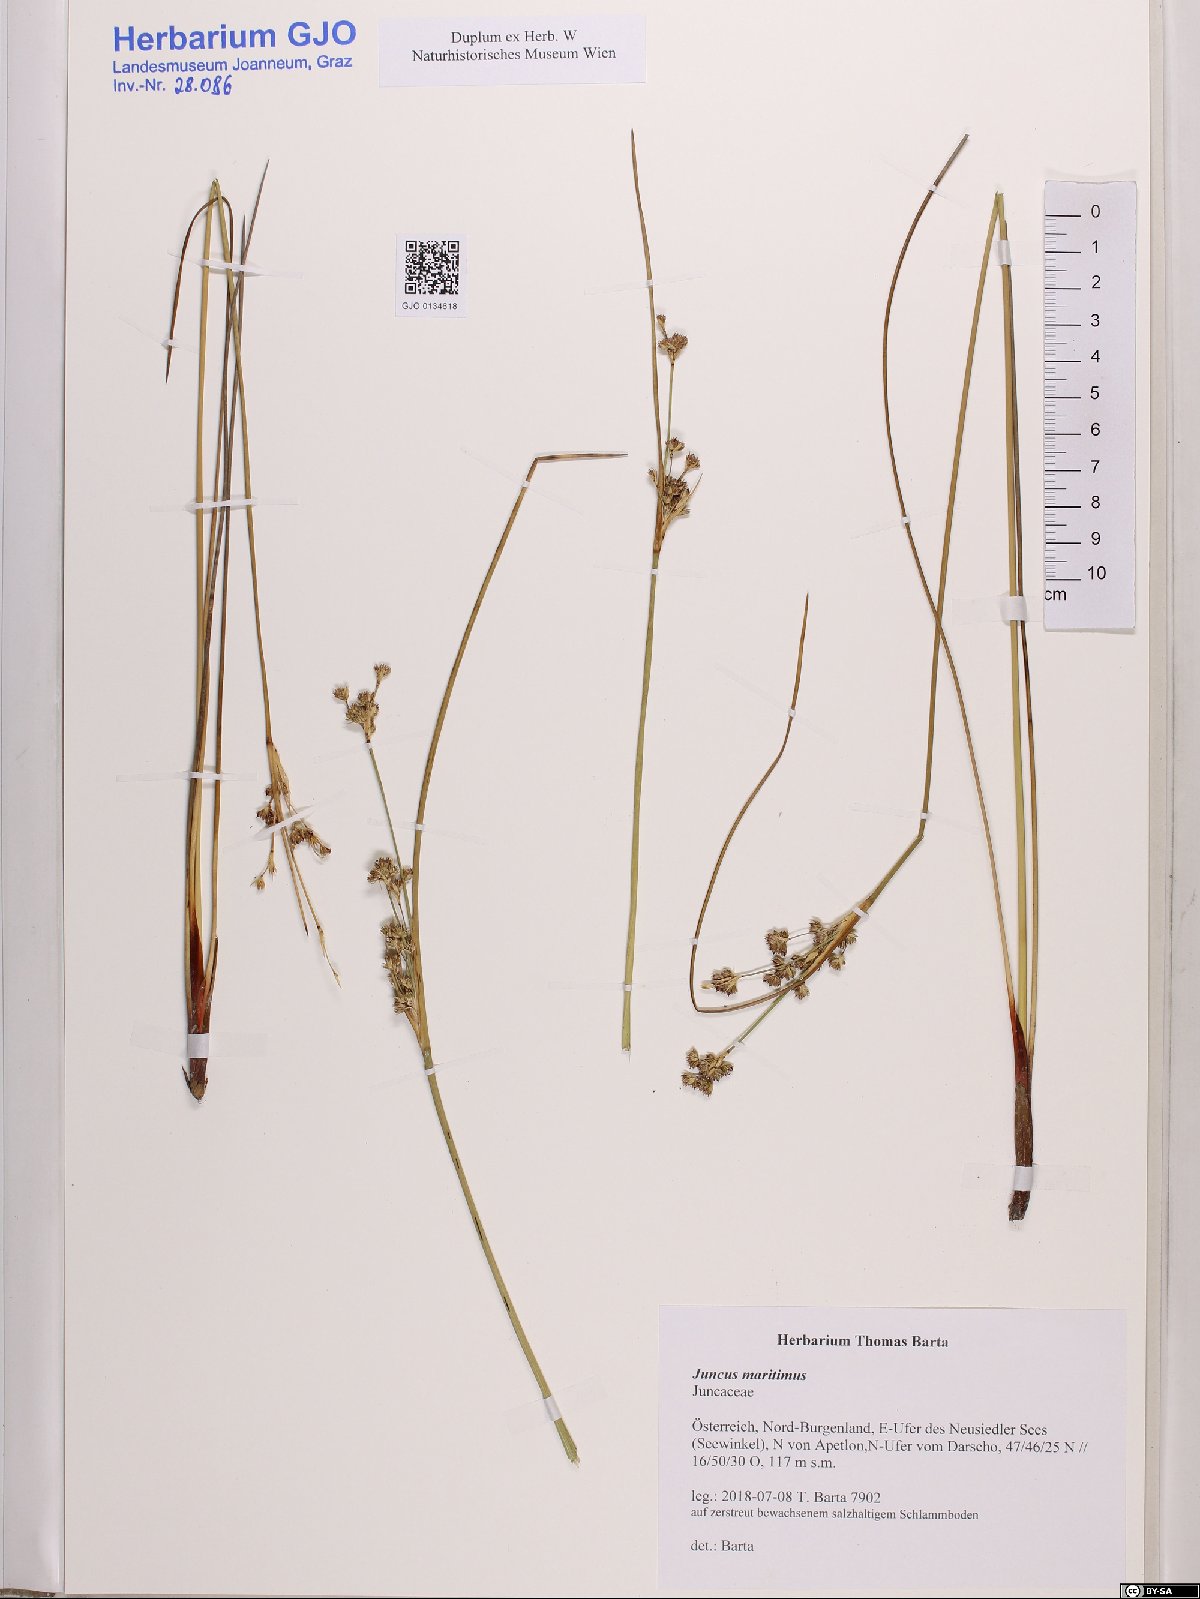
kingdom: Plantae
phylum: Tracheophyta
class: Liliopsida
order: Poales
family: Juncaceae
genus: Juncus
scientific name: Juncus maritimus
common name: Sea rush
